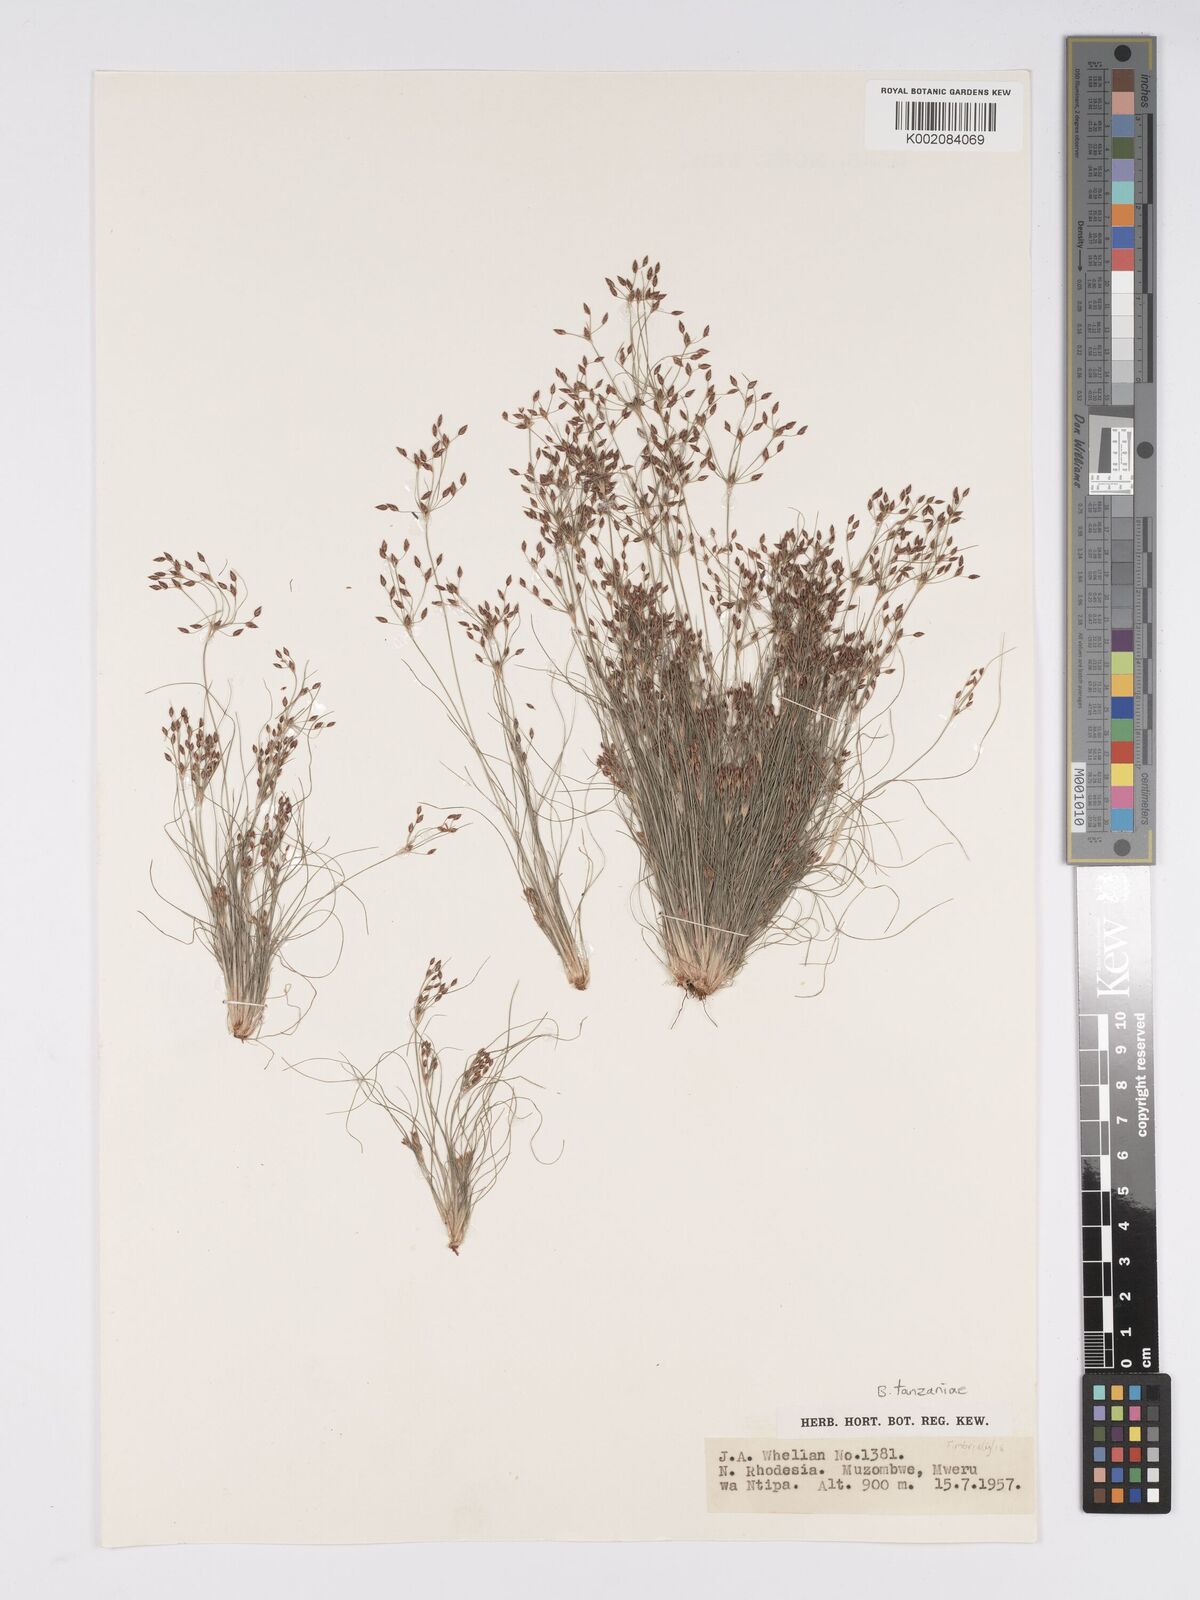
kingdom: Plantae
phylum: Tracheophyta
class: Liliopsida
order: Poales
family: Cyperaceae
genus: Bulbostylis
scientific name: Bulbostylis tanzaniae
